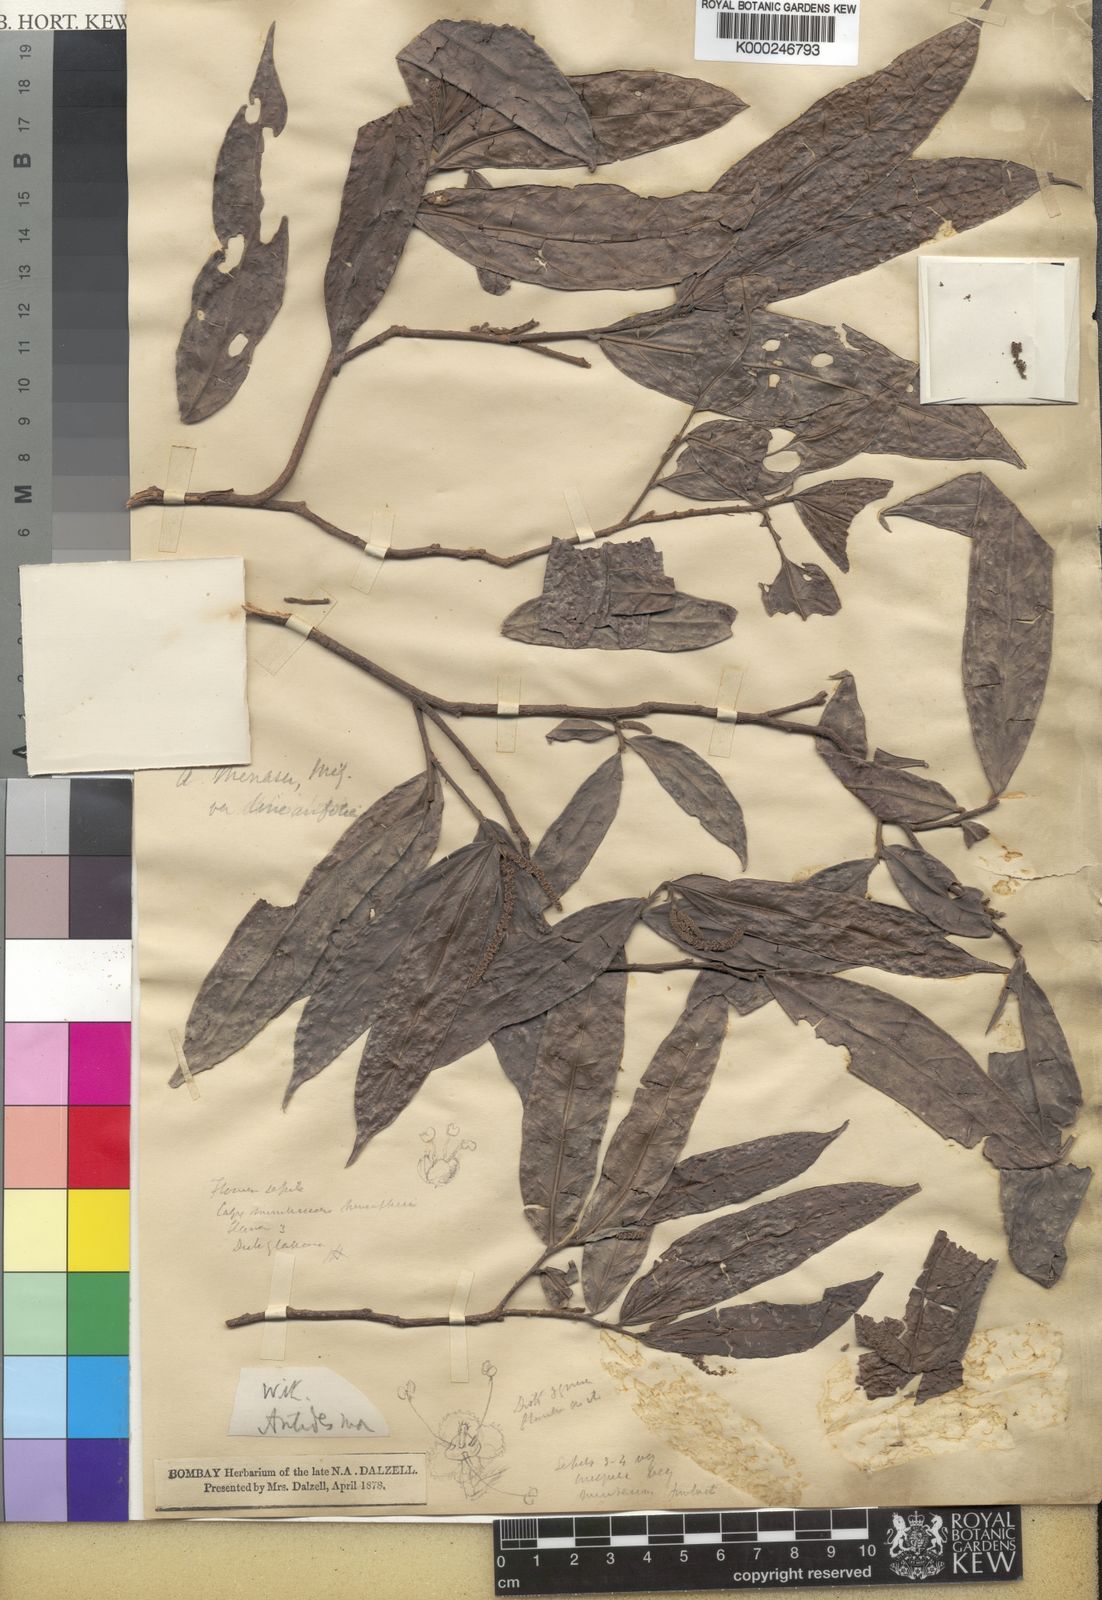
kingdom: Plantae
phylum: Tracheophyta
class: Magnoliopsida
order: Malpighiales
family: Phyllanthaceae
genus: Antidesma
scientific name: Antidesma montanum
